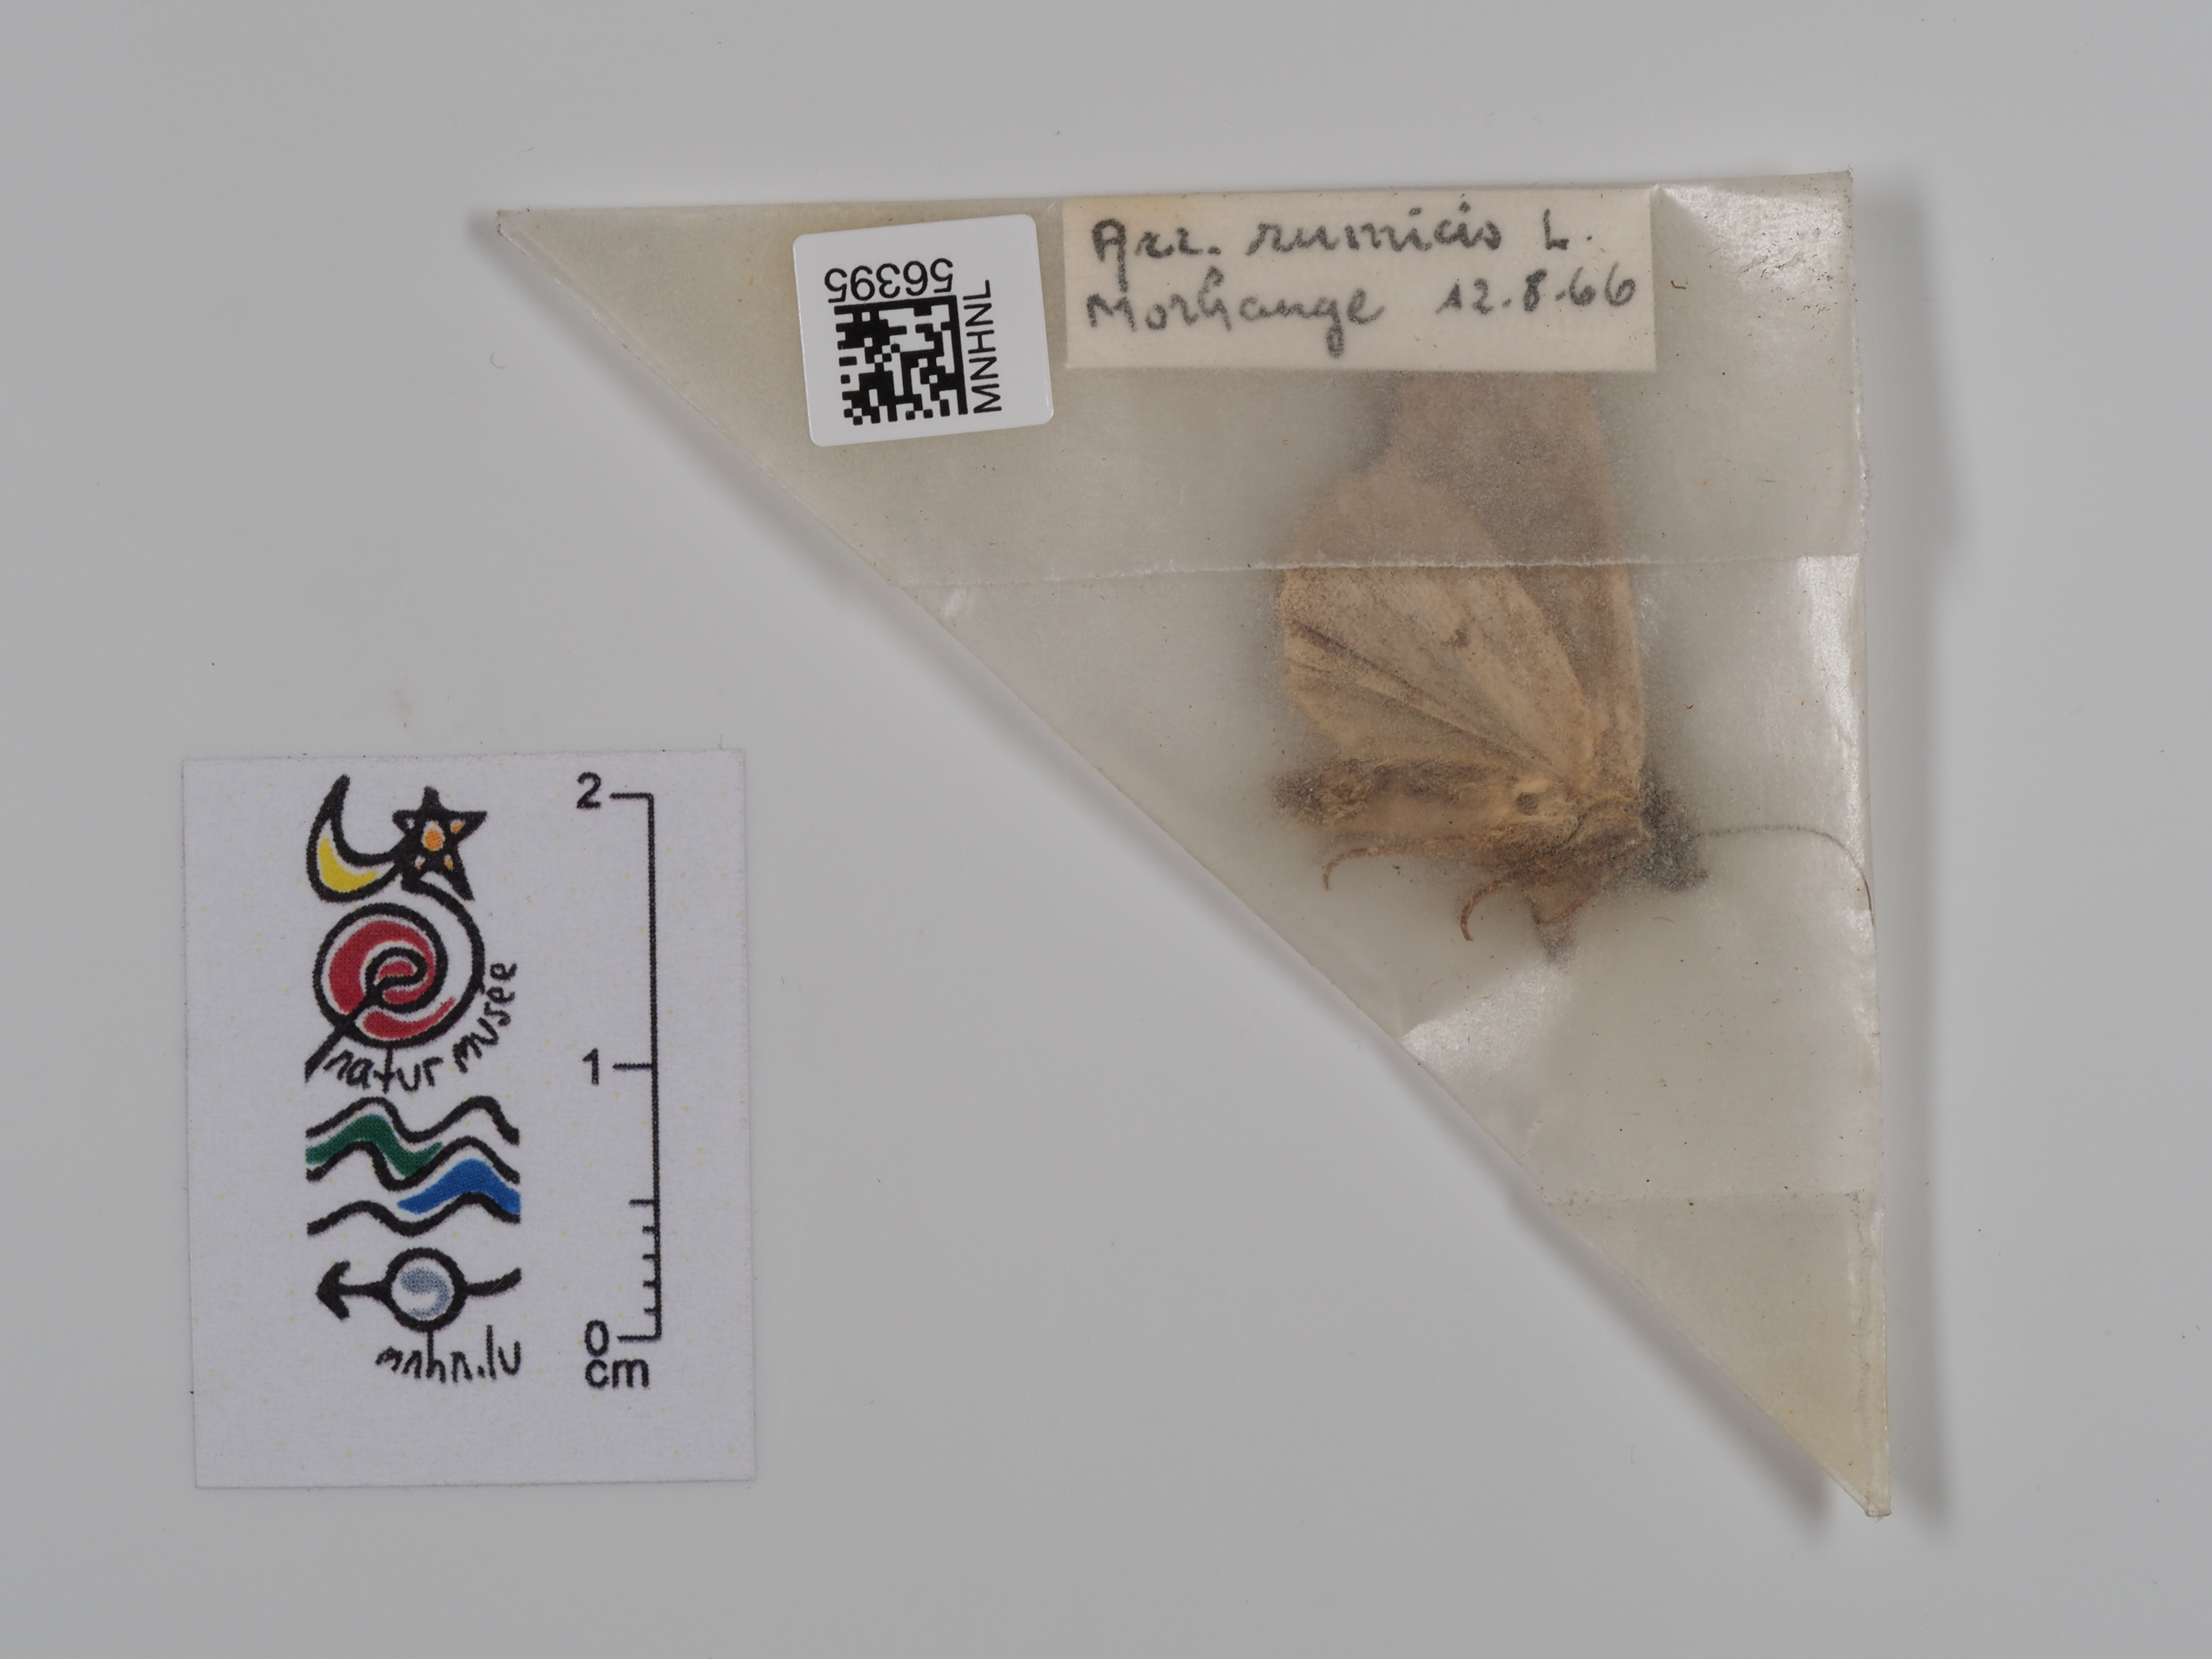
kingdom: Animalia
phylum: Arthropoda
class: Insecta
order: Lepidoptera
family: Noctuidae
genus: Acronicta
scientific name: Acronicta rumicis
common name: Knot grass
